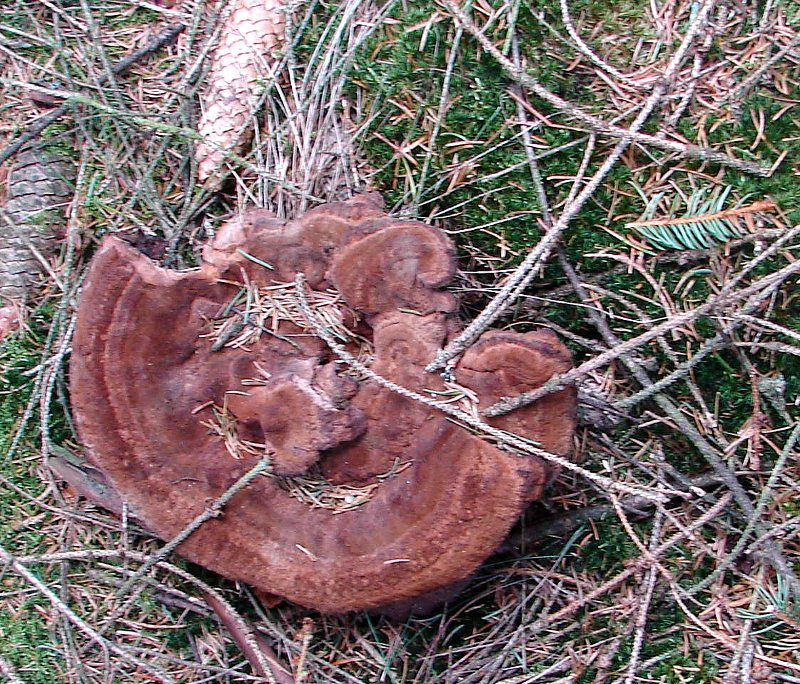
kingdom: Fungi
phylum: Basidiomycota
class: Agaricomycetes
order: Polyporales
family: Laetiporaceae
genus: Phaeolus
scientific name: Phaeolus schweinitzii
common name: brunporesvamp
